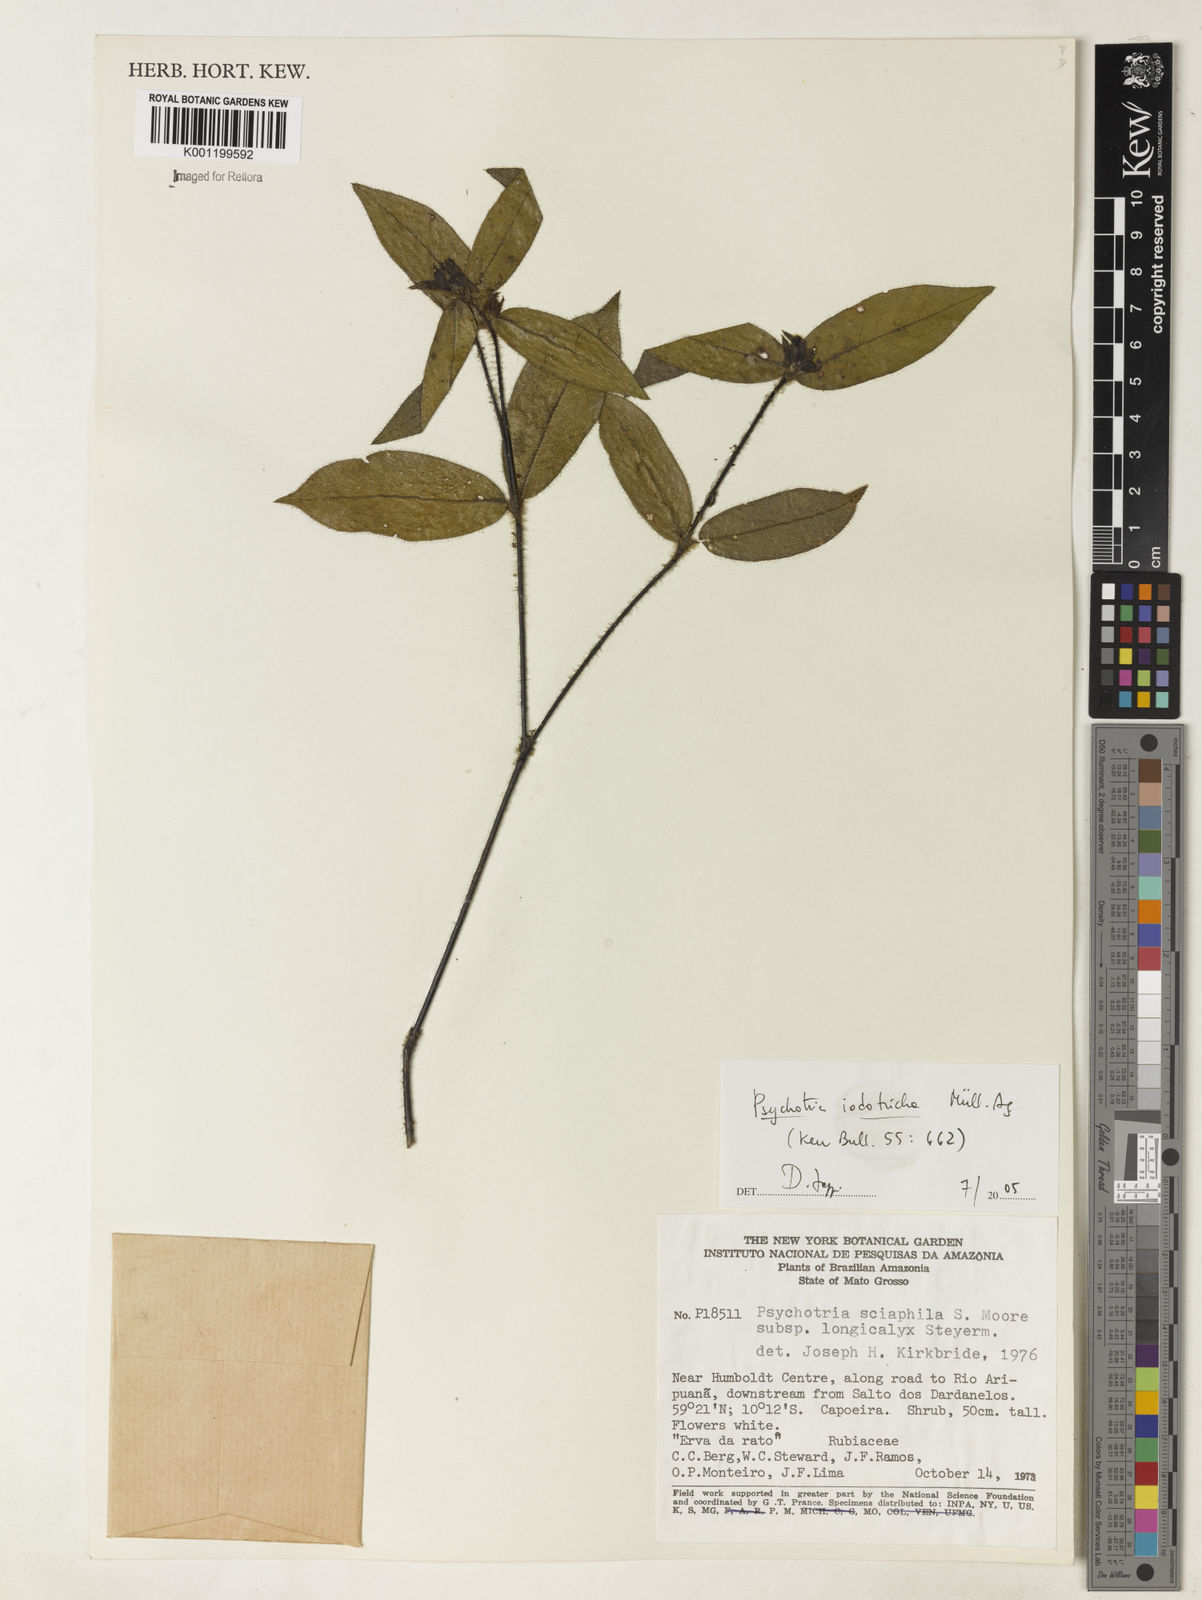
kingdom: Plantae
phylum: Tracheophyta
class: Magnoliopsida
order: Gentianales
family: Rubiaceae
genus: Psychotria
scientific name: Psychotria
